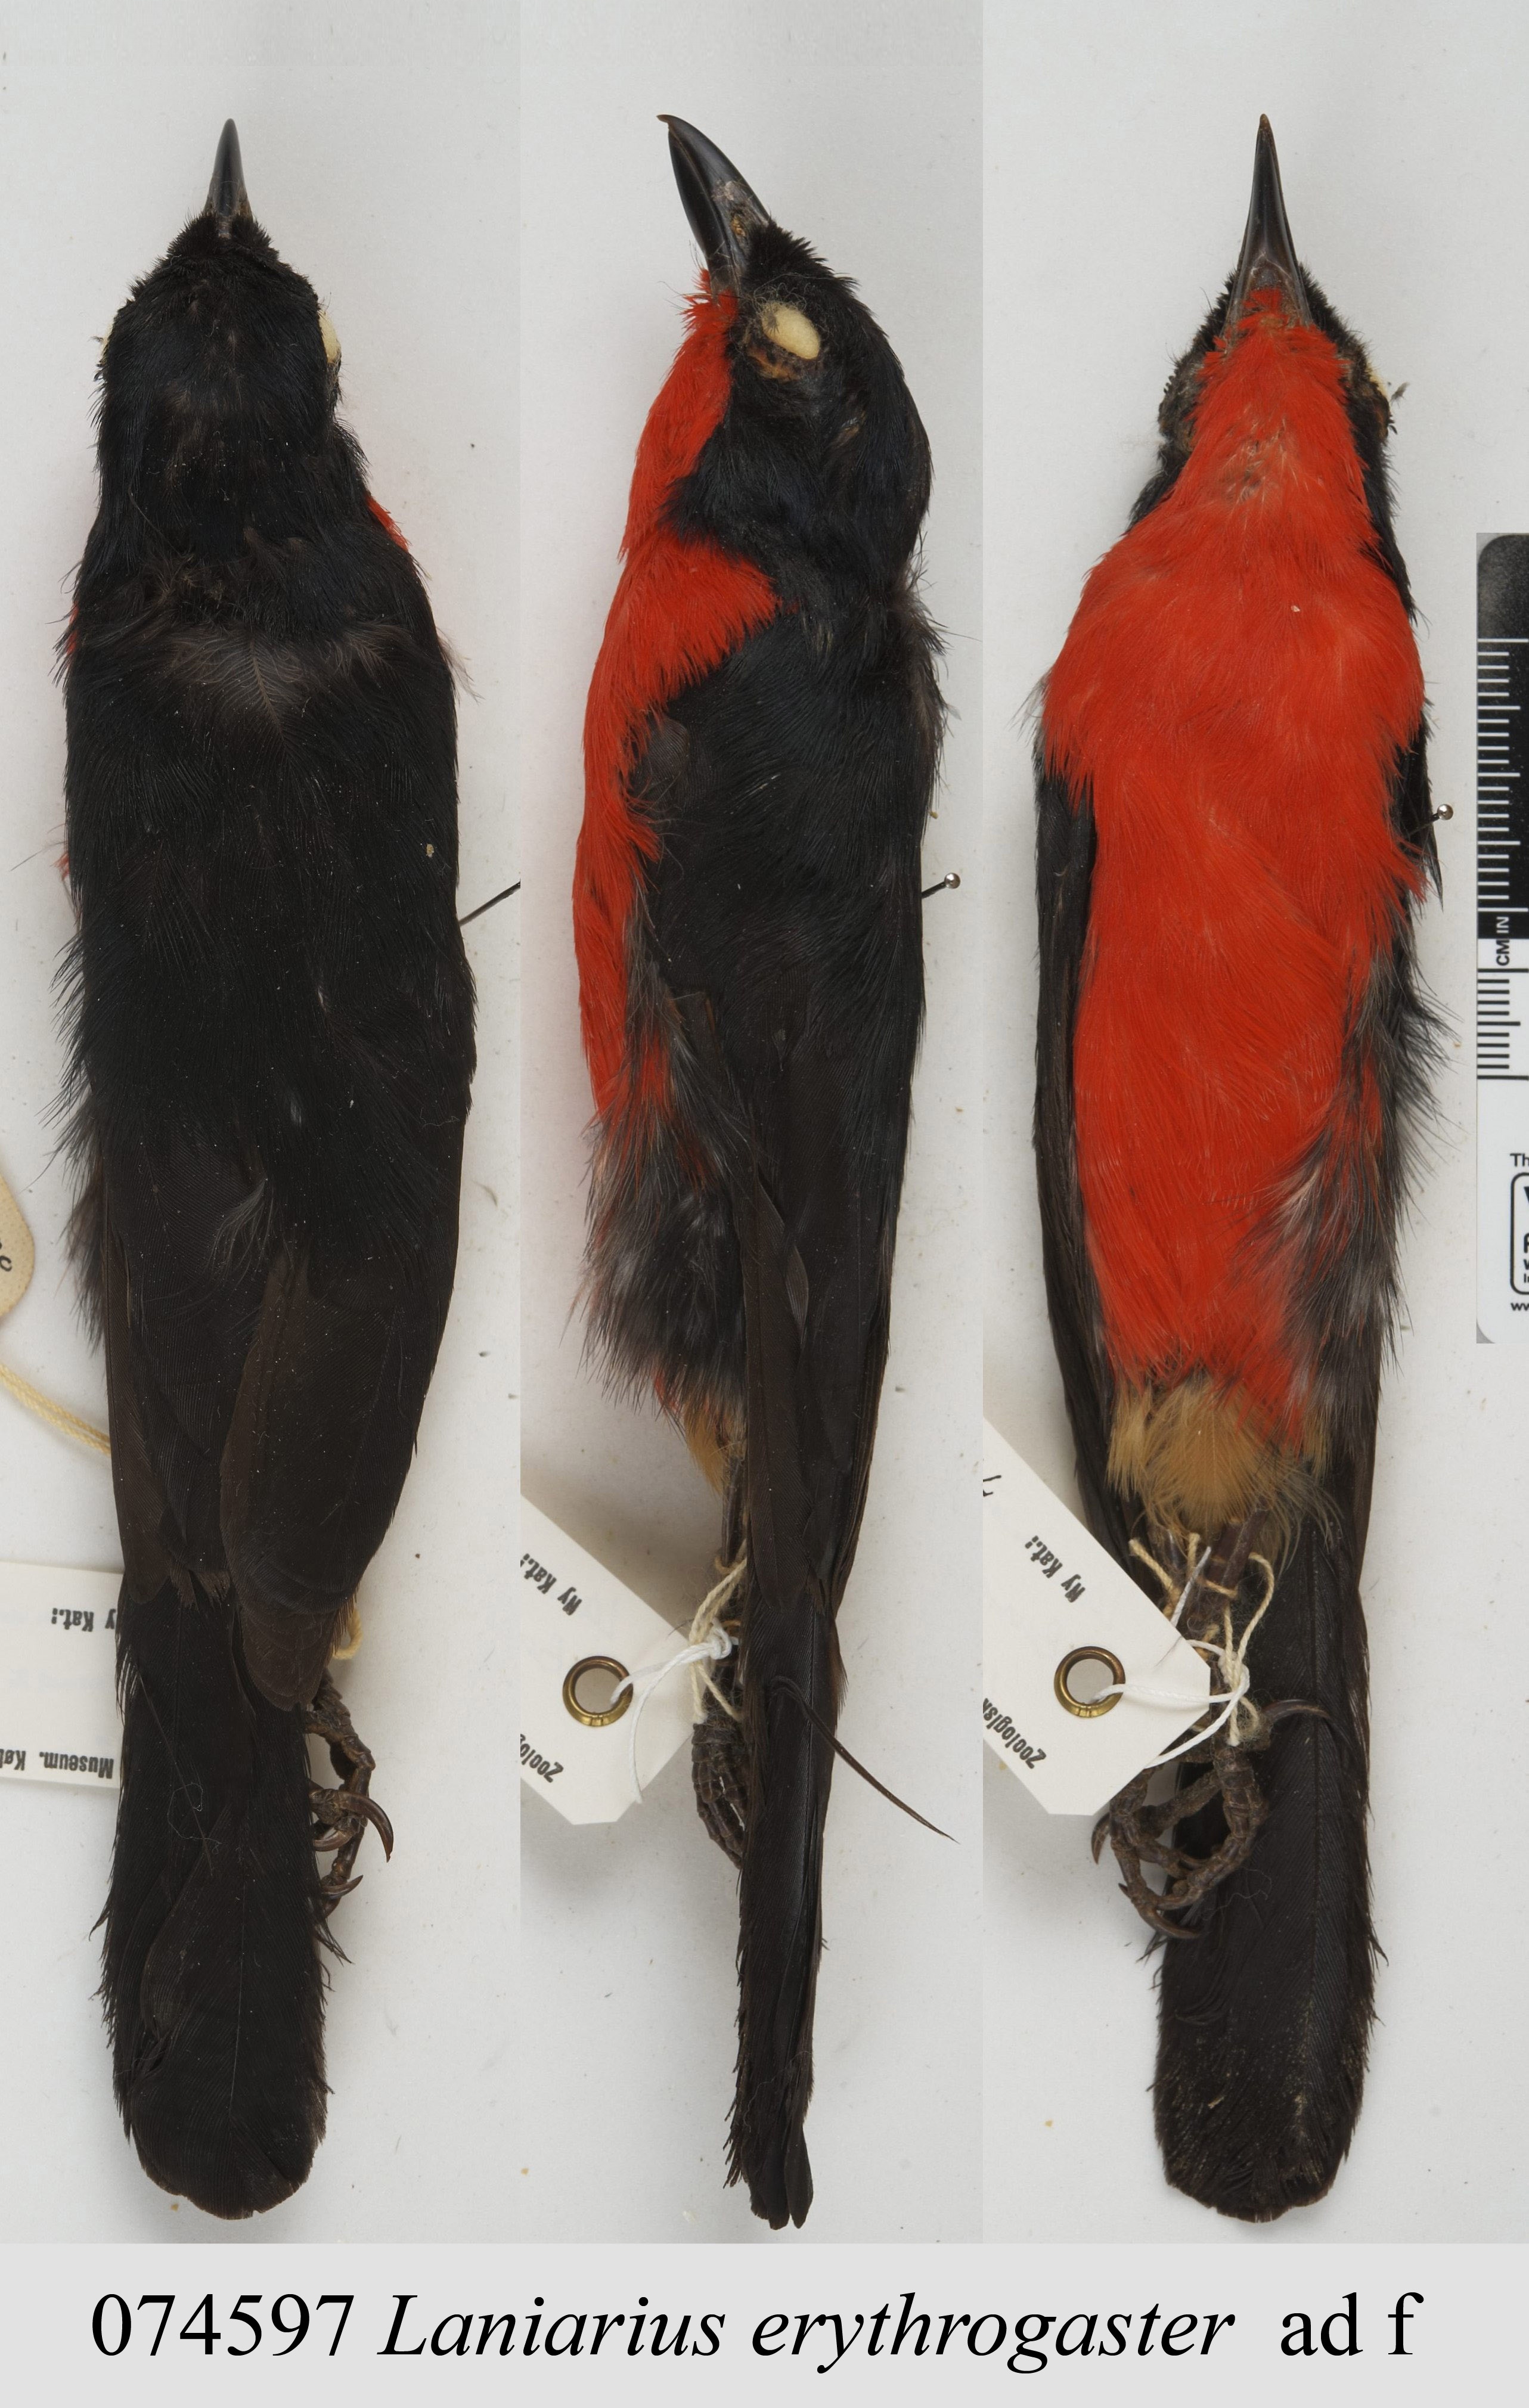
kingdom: Animalia
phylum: Chordata
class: Aves
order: Passeriformes
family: Malaconotidae
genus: Laniarius
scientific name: Laniarius erythrogaster
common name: Black-headed gonolek
